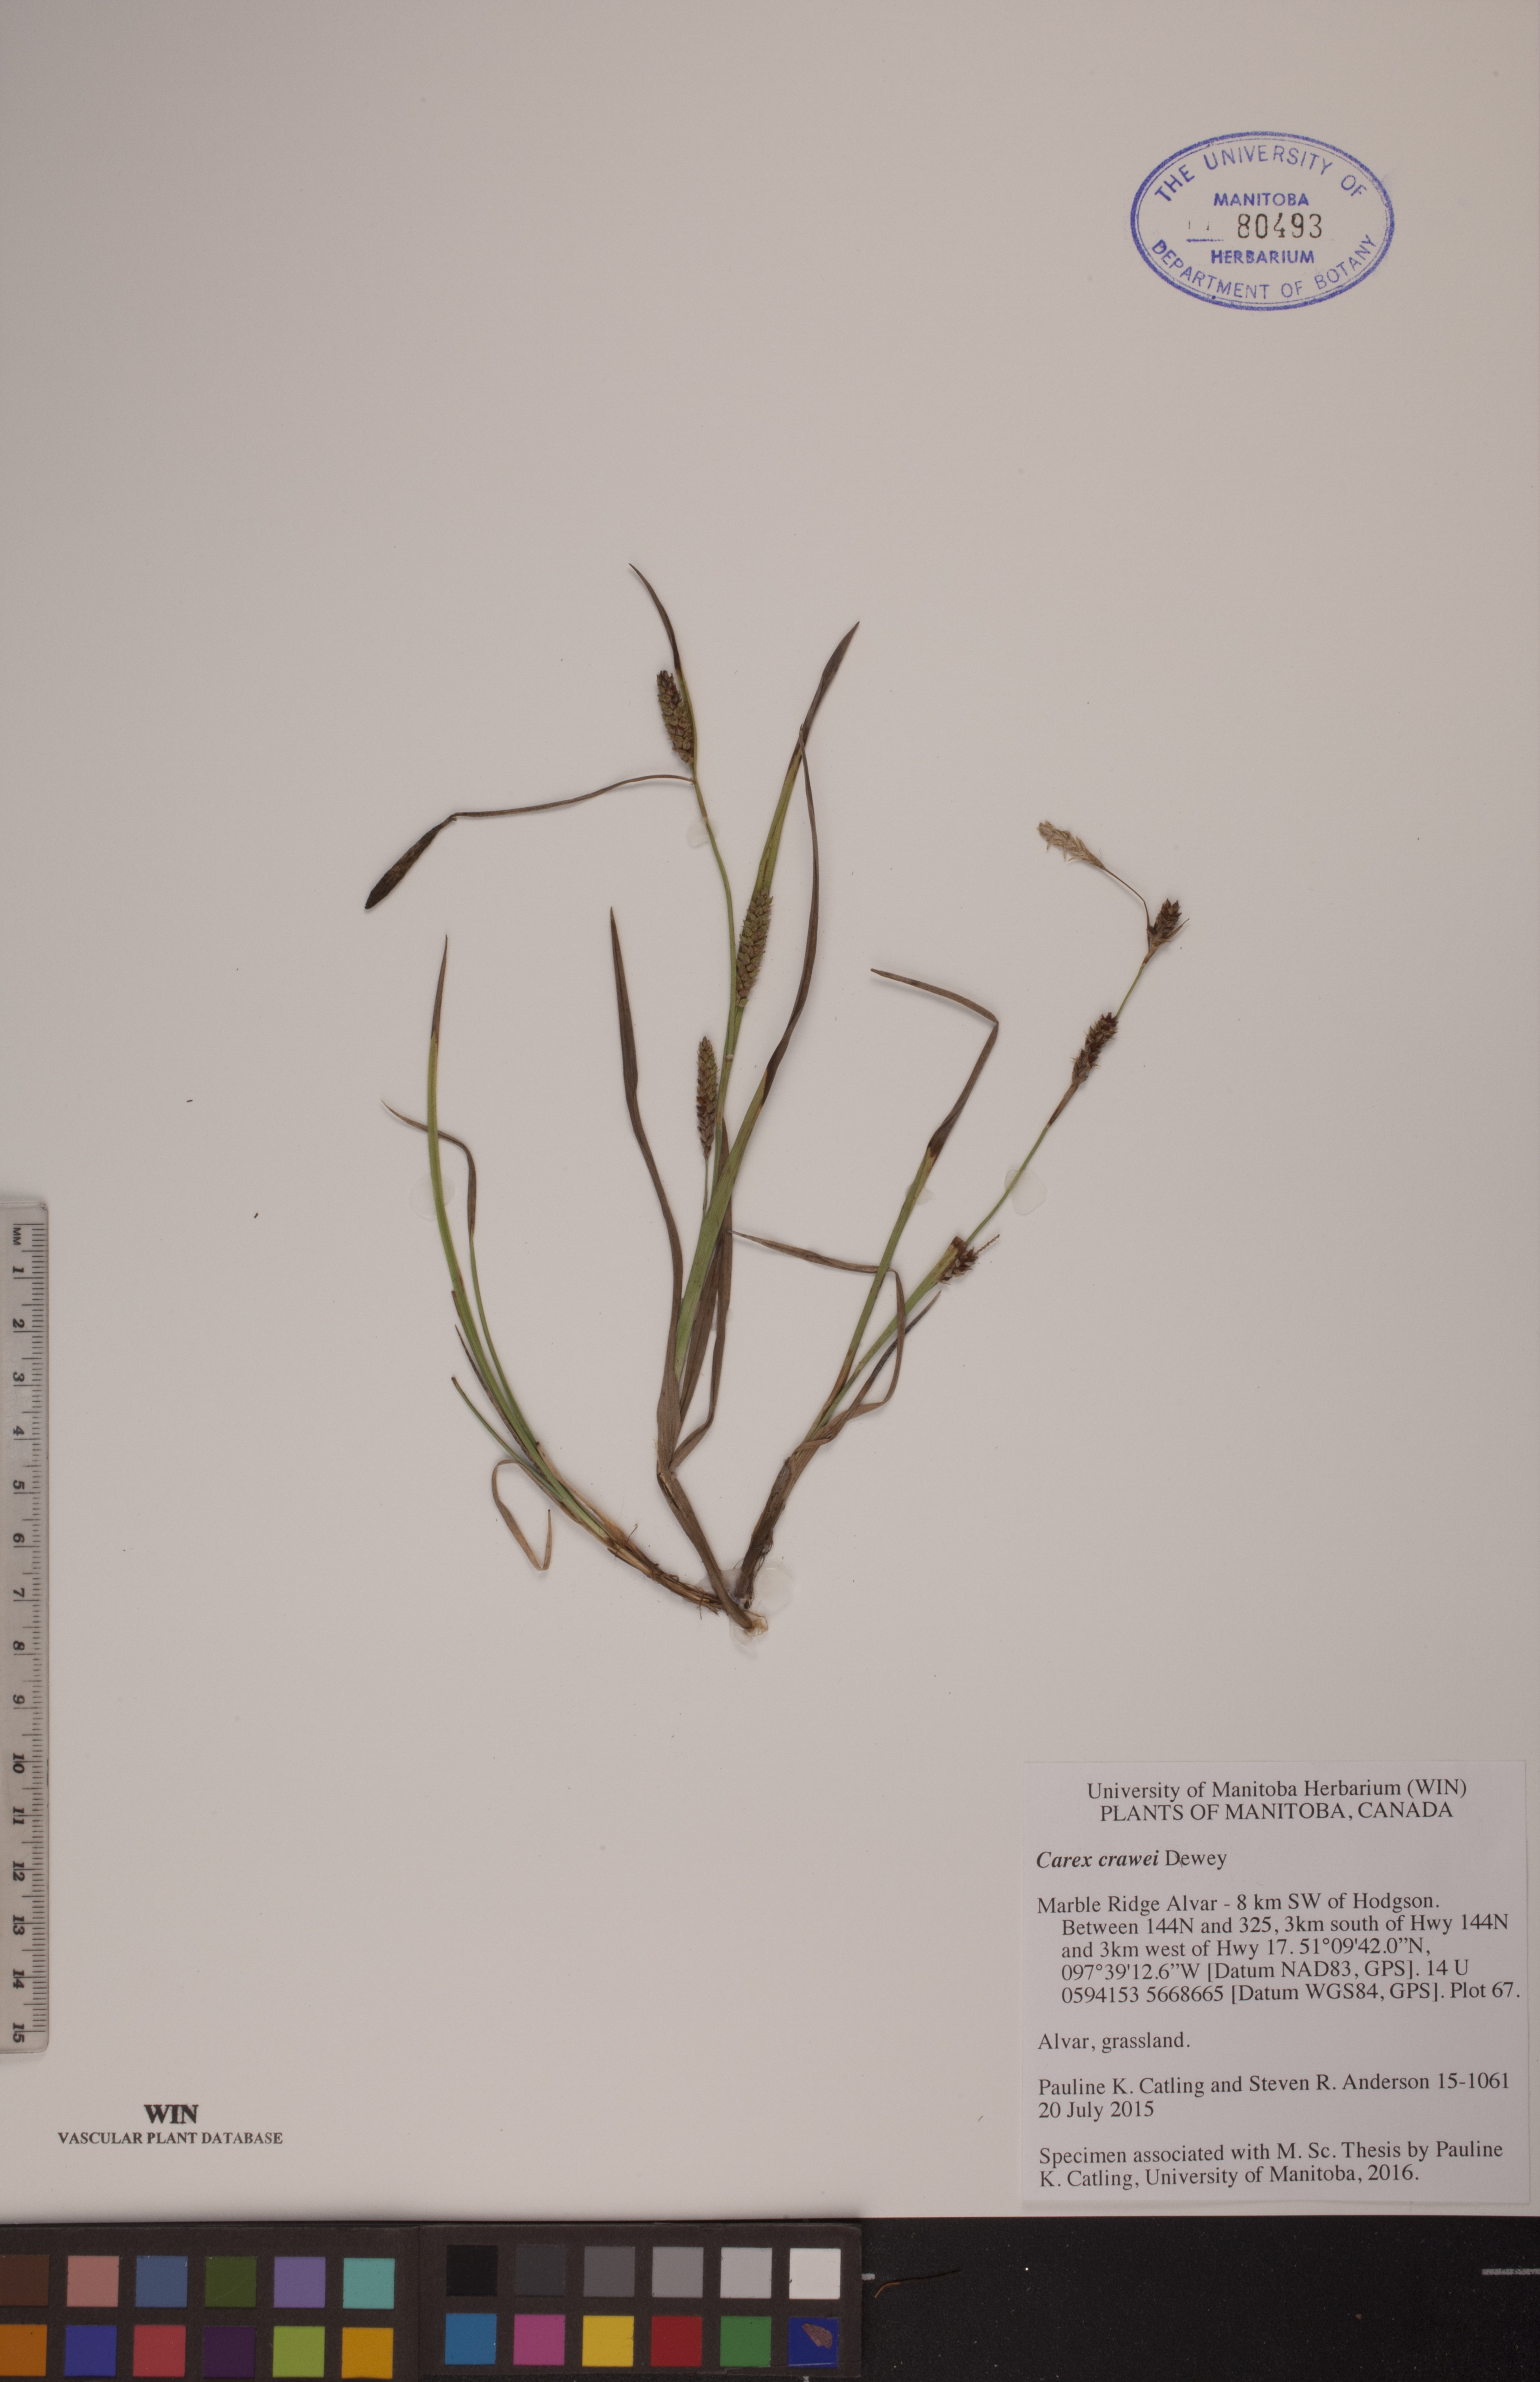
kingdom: Plantae
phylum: Tracheophyta
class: Liliopsida
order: Poales
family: Cyperaceae
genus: Carex
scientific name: Carex crawei
